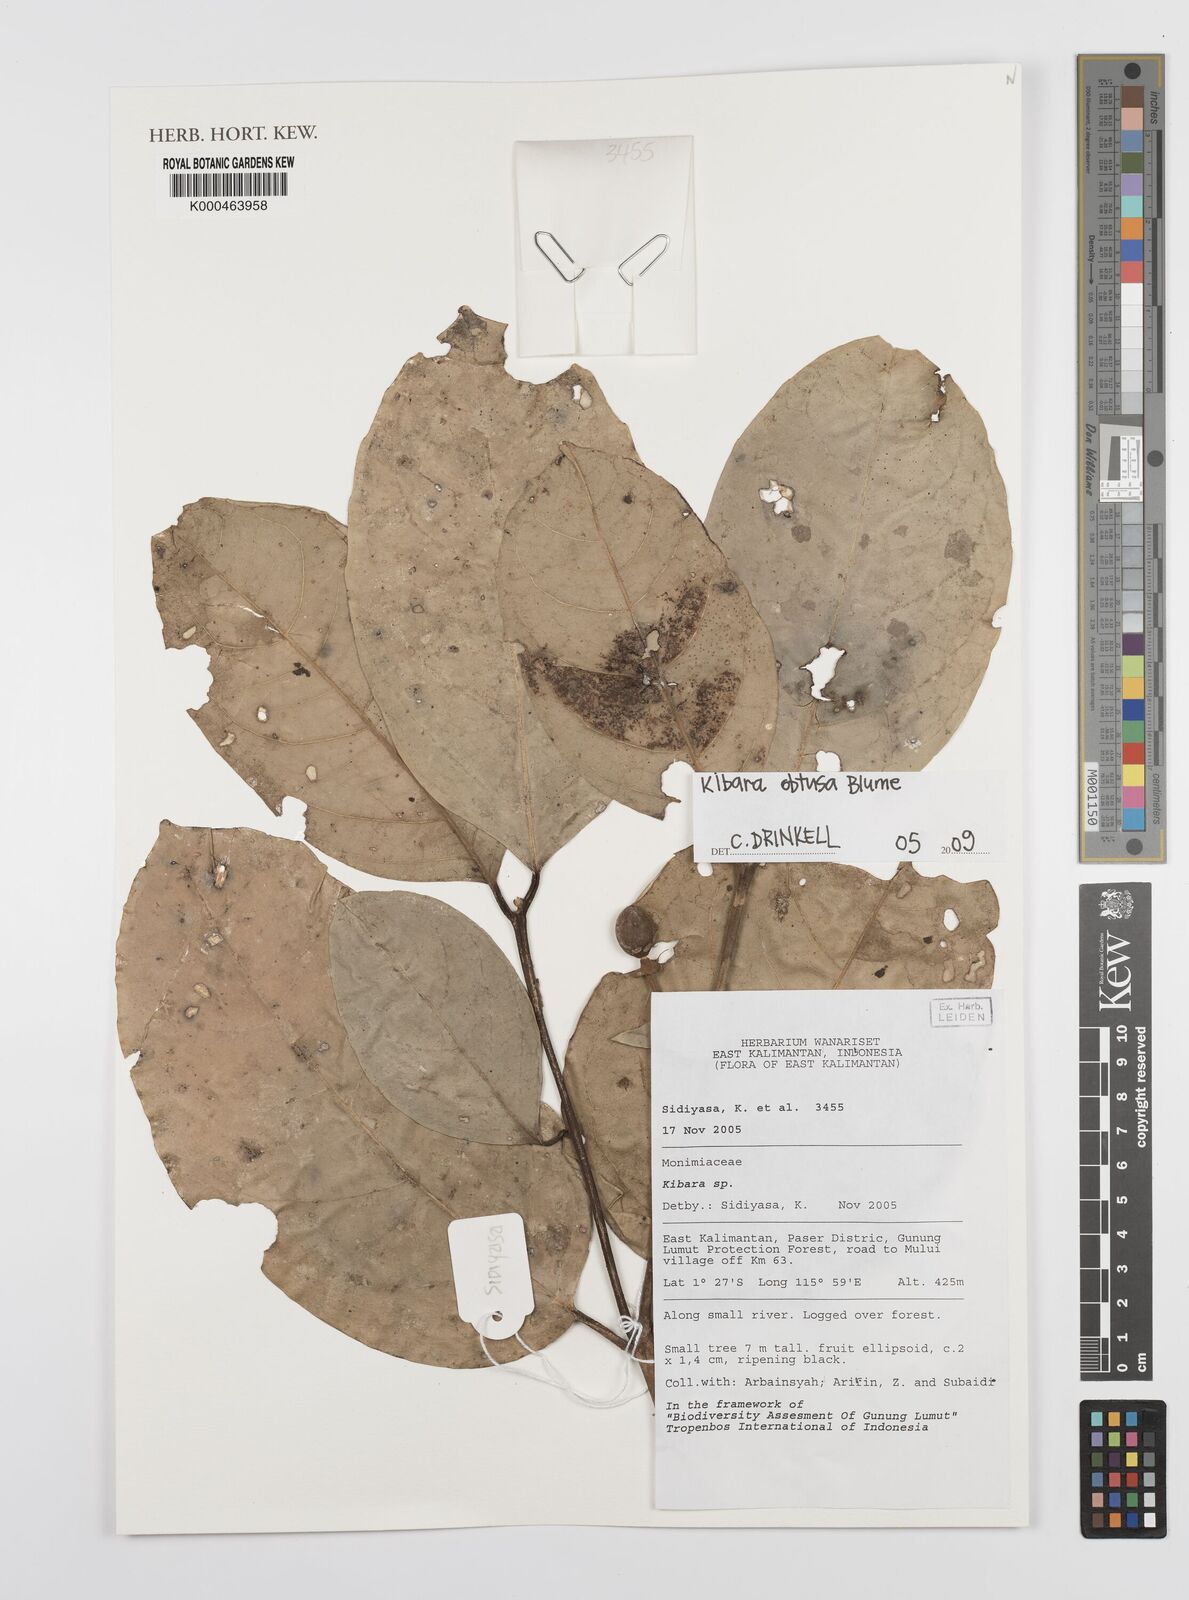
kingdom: Plantae
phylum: Tracheophyta
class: Magnoliopsida
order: Laurales
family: Monimiaceae
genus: Kibara
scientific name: Kibara obtusa
